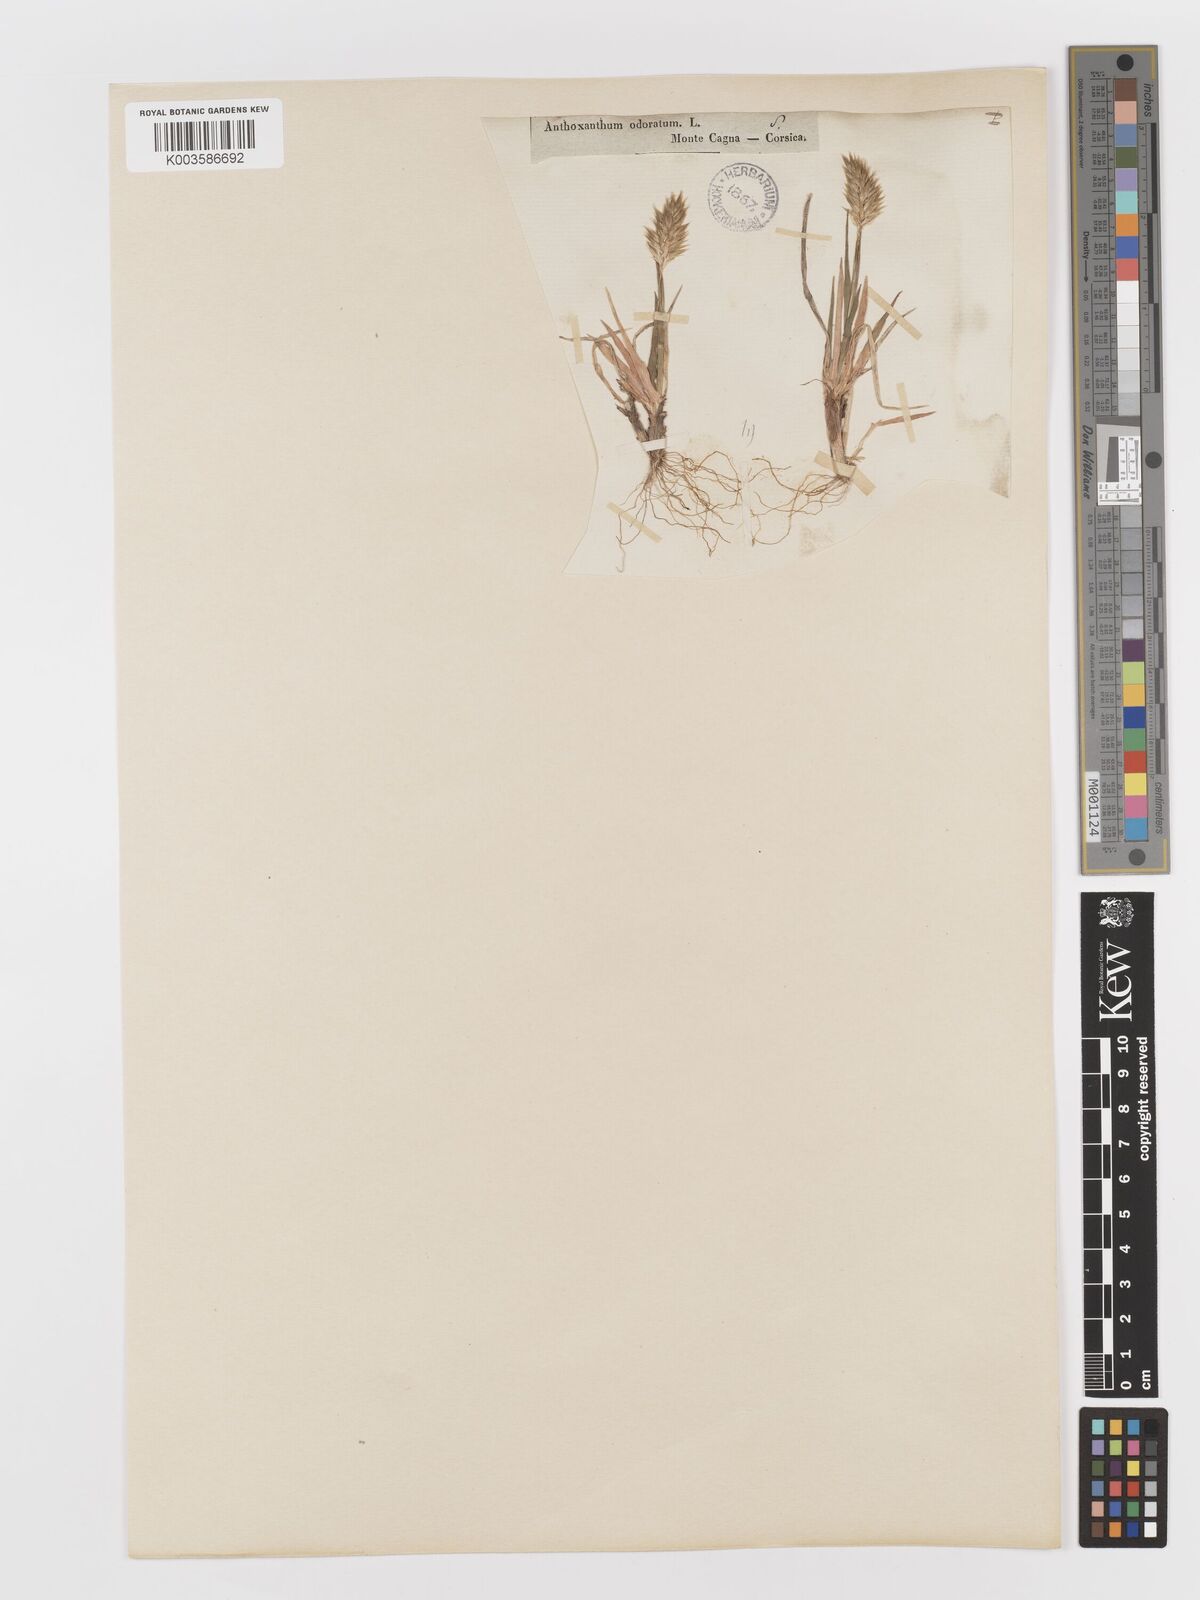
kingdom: Plantae
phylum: Tracheophyta
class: Liliopsida
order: Poales
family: Poaceae
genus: Anthoxanthum
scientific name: Anthoxanthum odoratum
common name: Sweet vernalgrass
